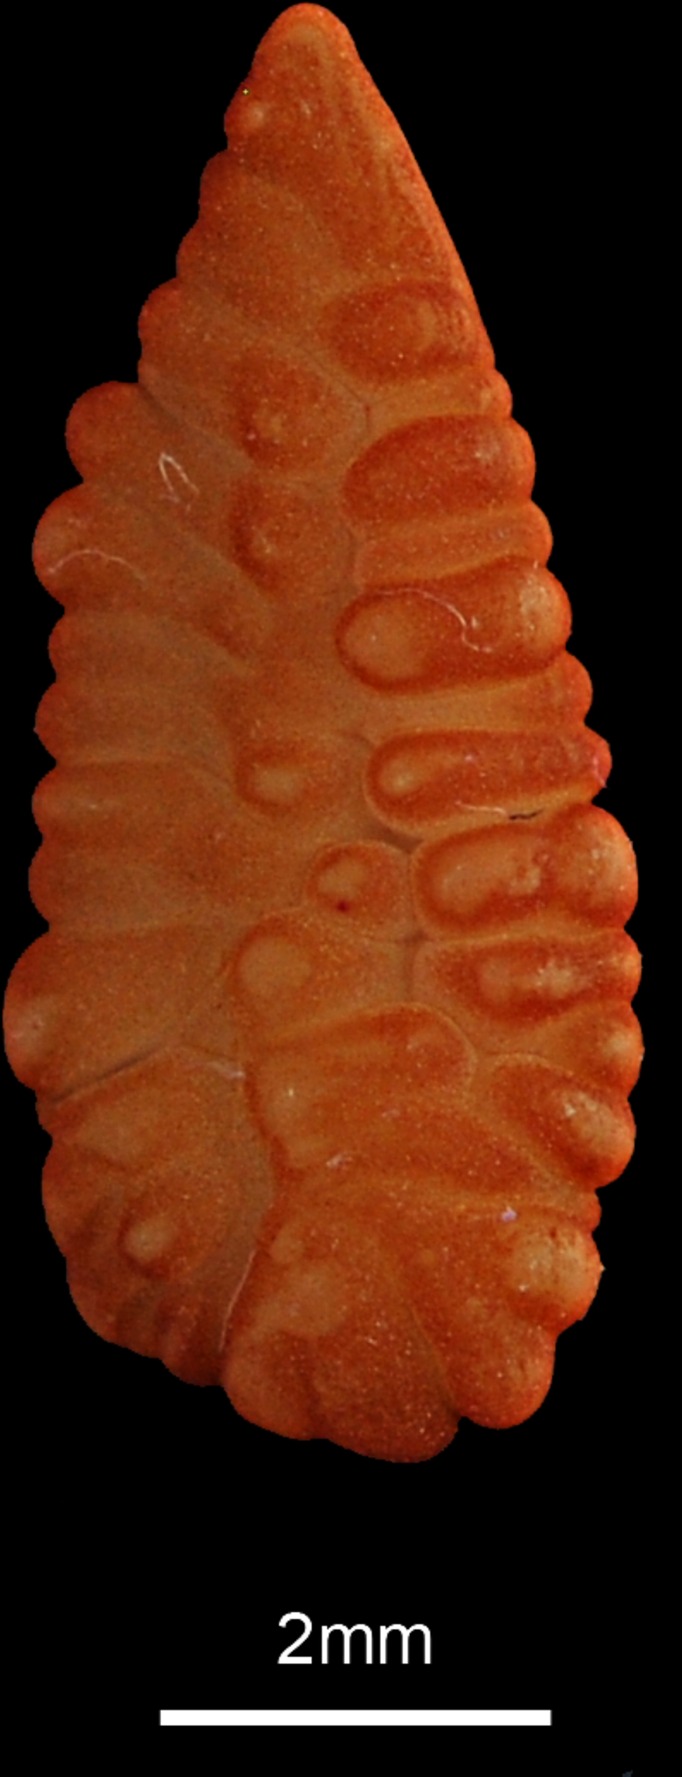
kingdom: Animalia
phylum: Chordata
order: Gadiformes
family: Gadidae
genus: Trisopterus
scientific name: Trisopterus minutus
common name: Poor cod
